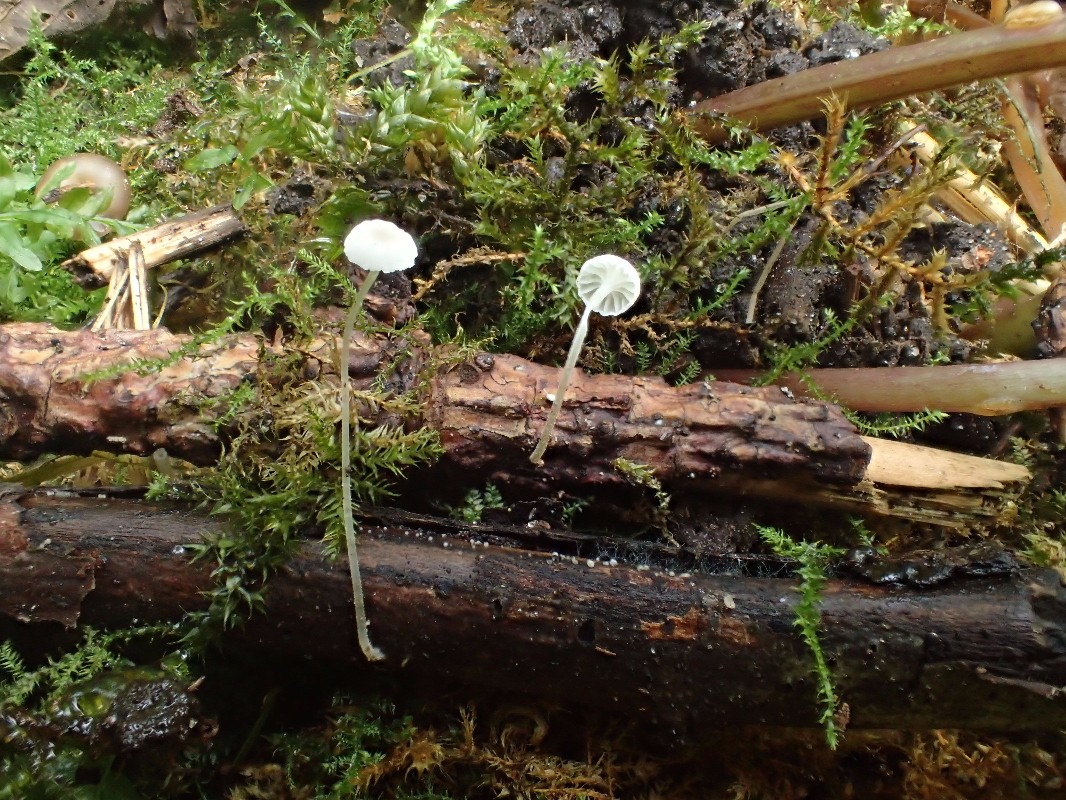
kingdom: Fungi
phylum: Basidiomycota
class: Agaricomycetes
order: Agaricales
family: Porotheleaceae
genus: Phloeomana
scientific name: Phloeomana speirea
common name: kvist-huesvamp
